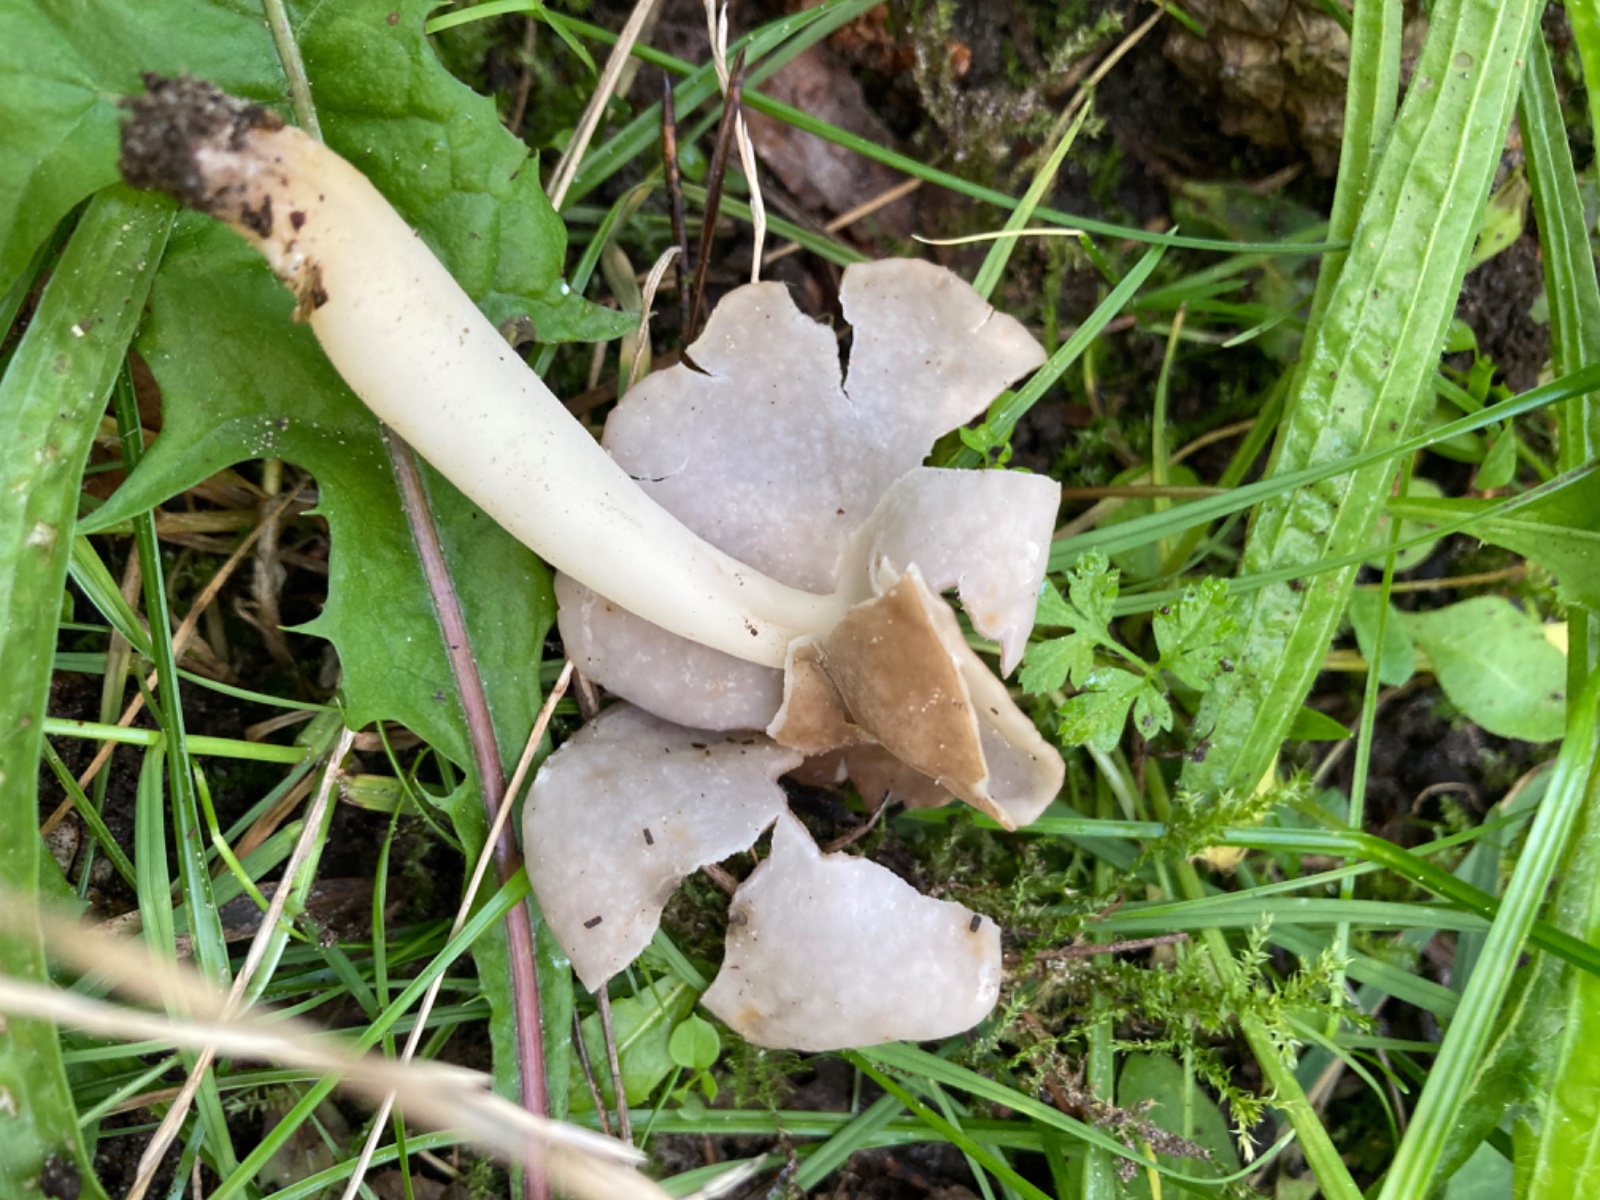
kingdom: Fungi
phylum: Ascomycota
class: Pezizomycetes
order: Pezizales
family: Helvellaceae
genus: Helvella
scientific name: Helvella elastica
